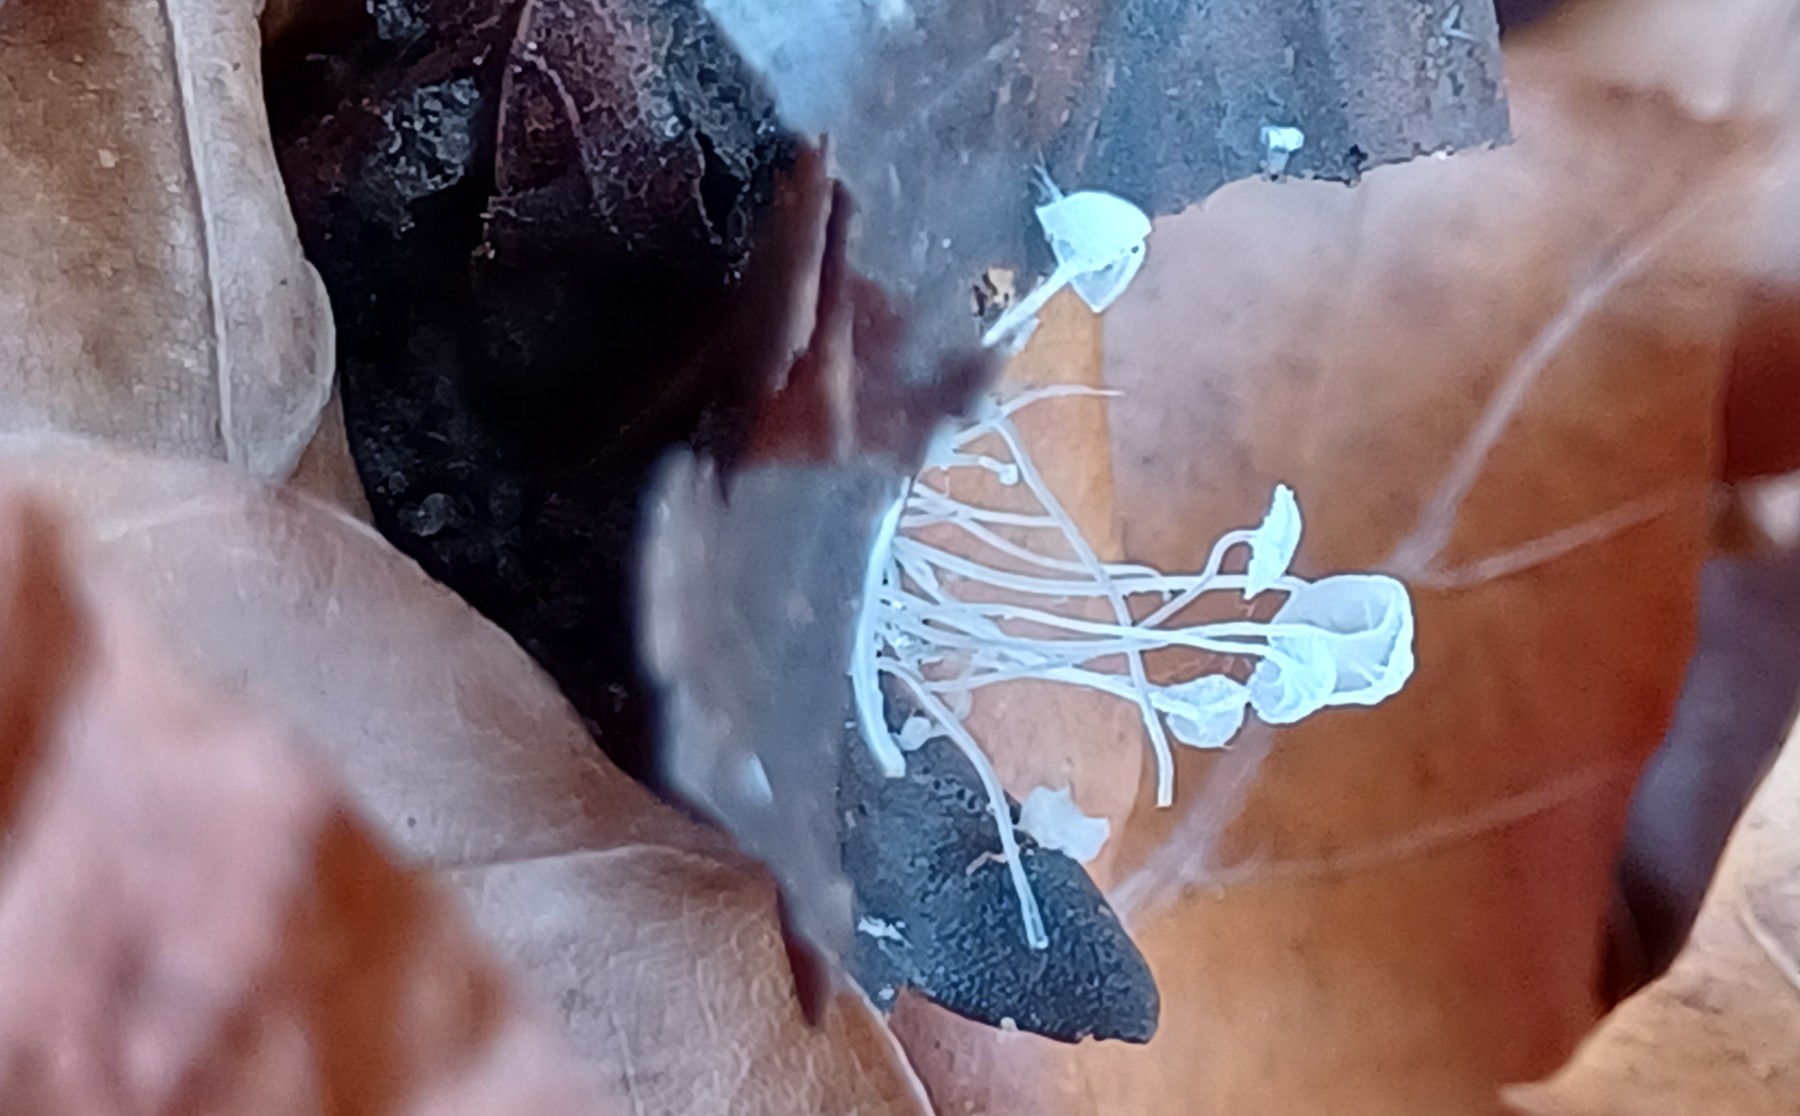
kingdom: Fungi
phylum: Basidiomycota
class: Agaricomycetes
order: Agaricales
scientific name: Agaricales
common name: champignonordenen
